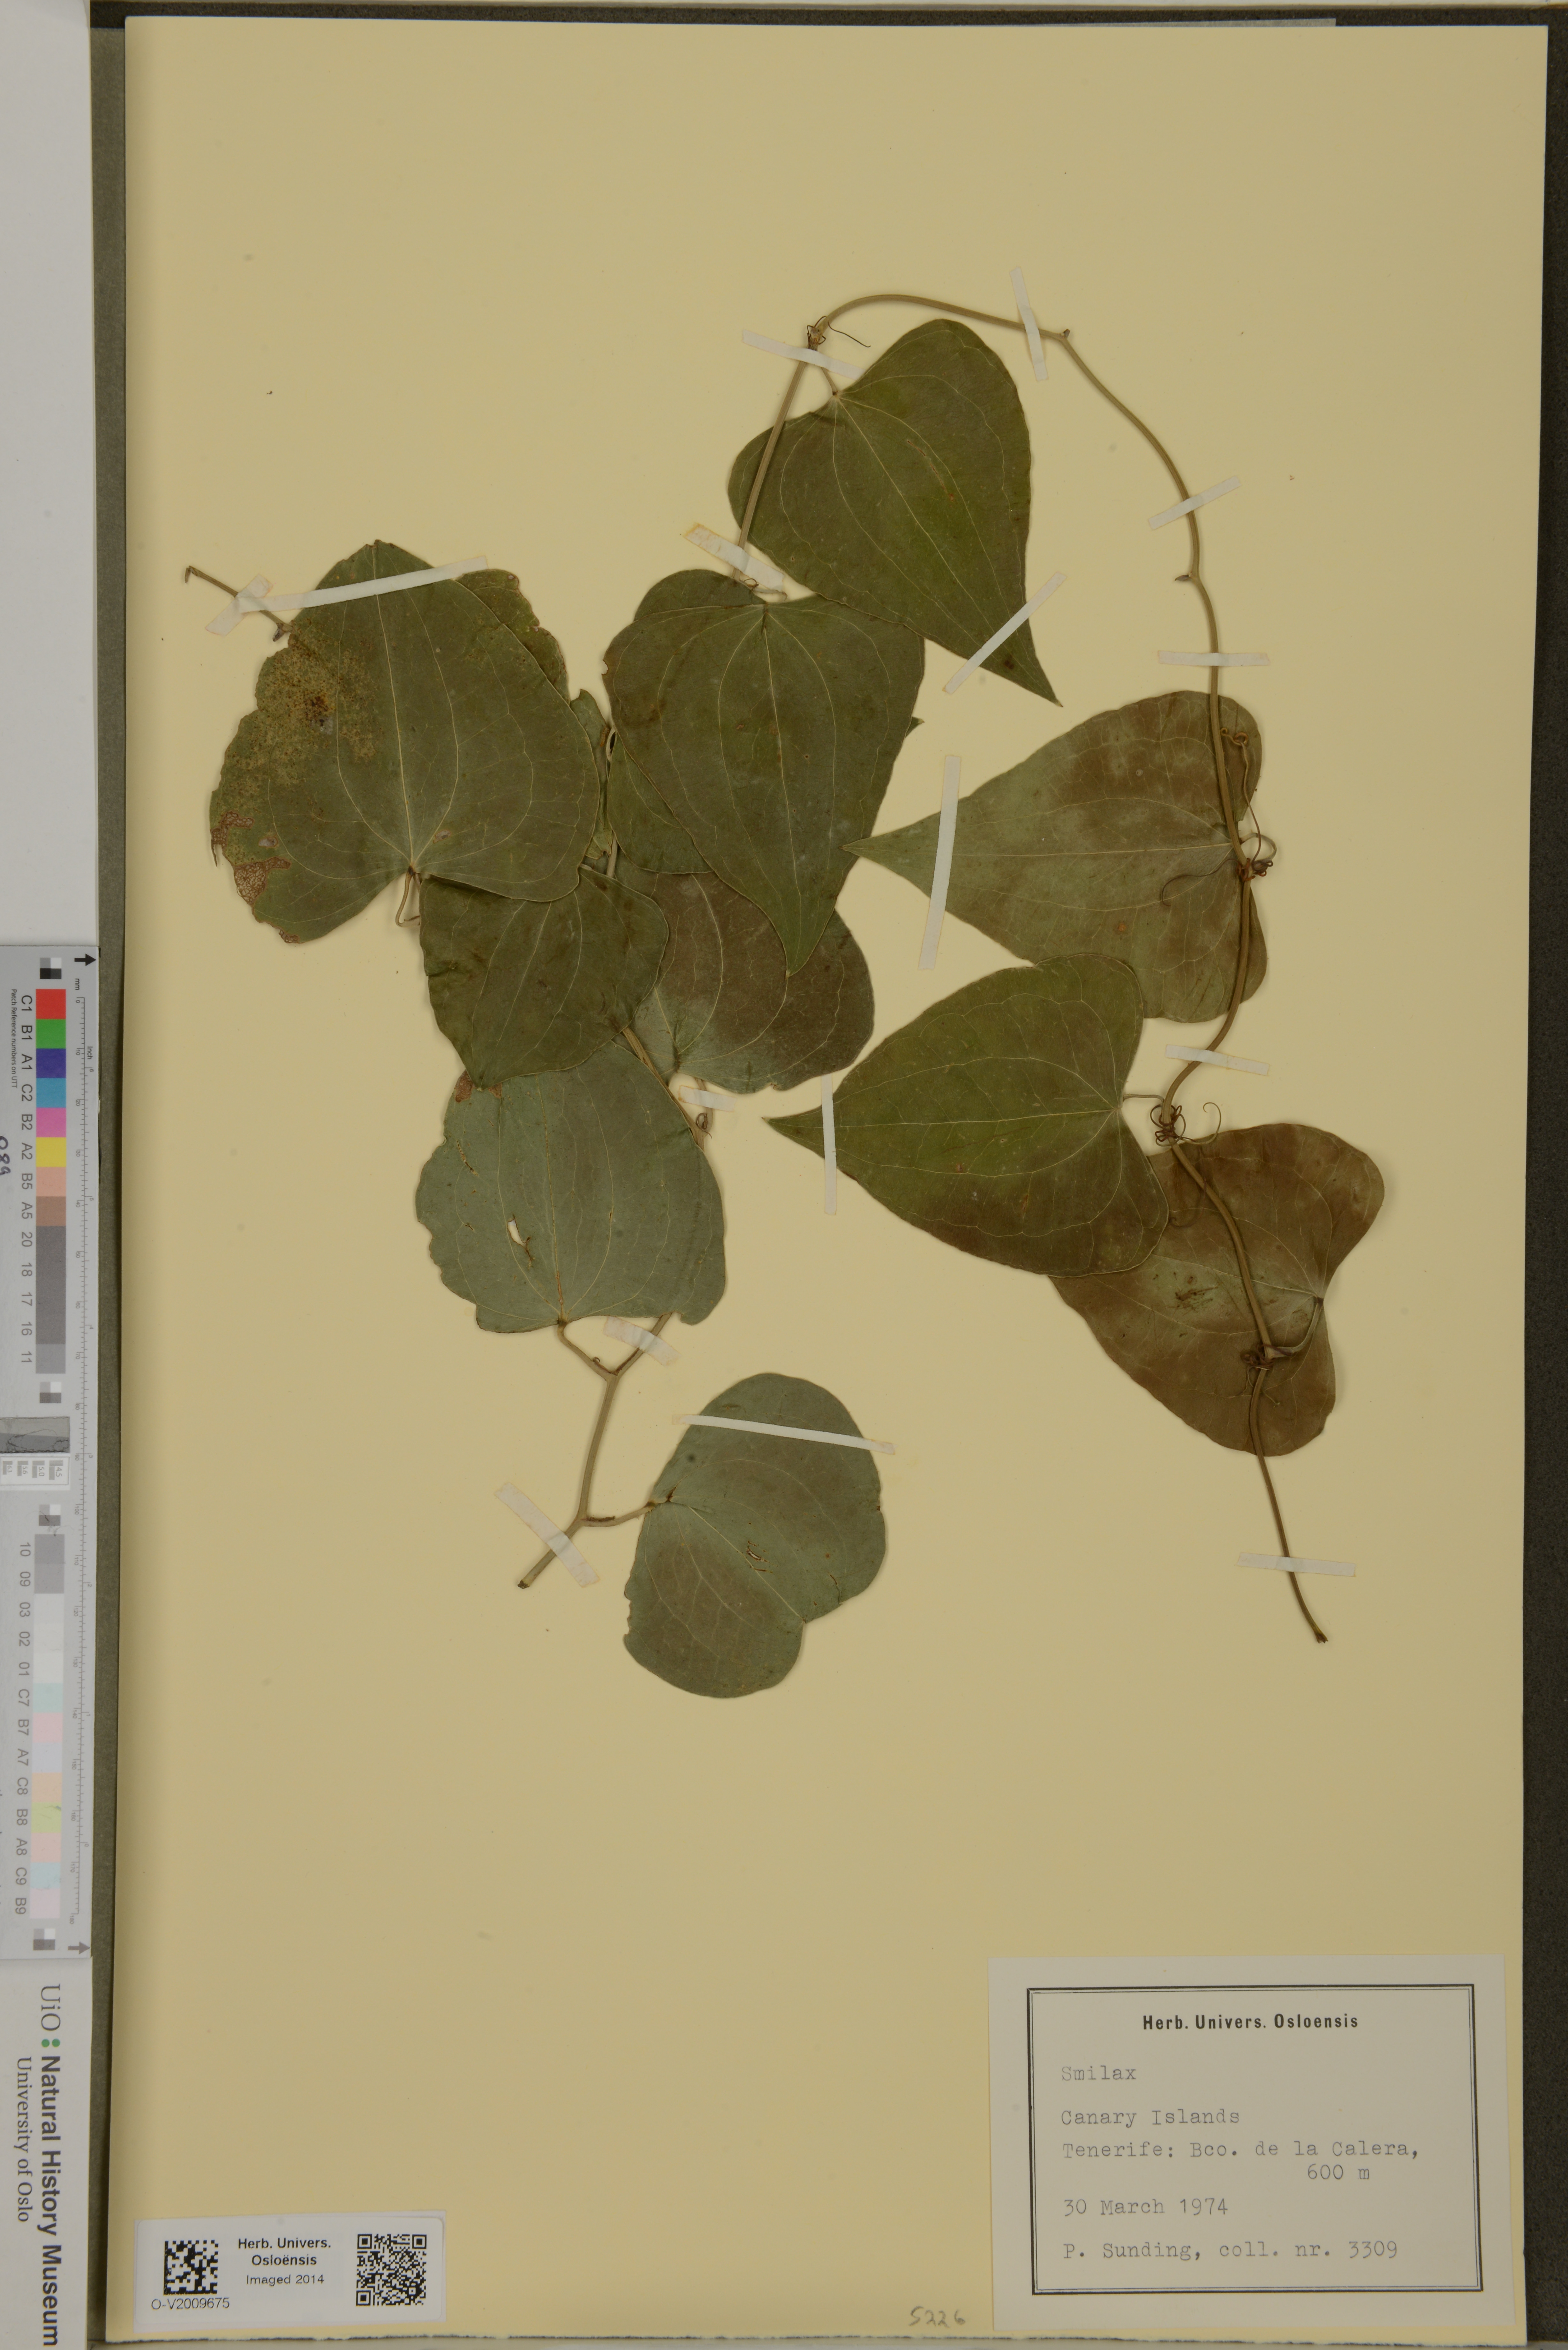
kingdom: Plantae
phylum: Tracheophyta
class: Liliopsida
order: Liliales
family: Smilacaceae
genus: Smilax
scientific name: Smilax
